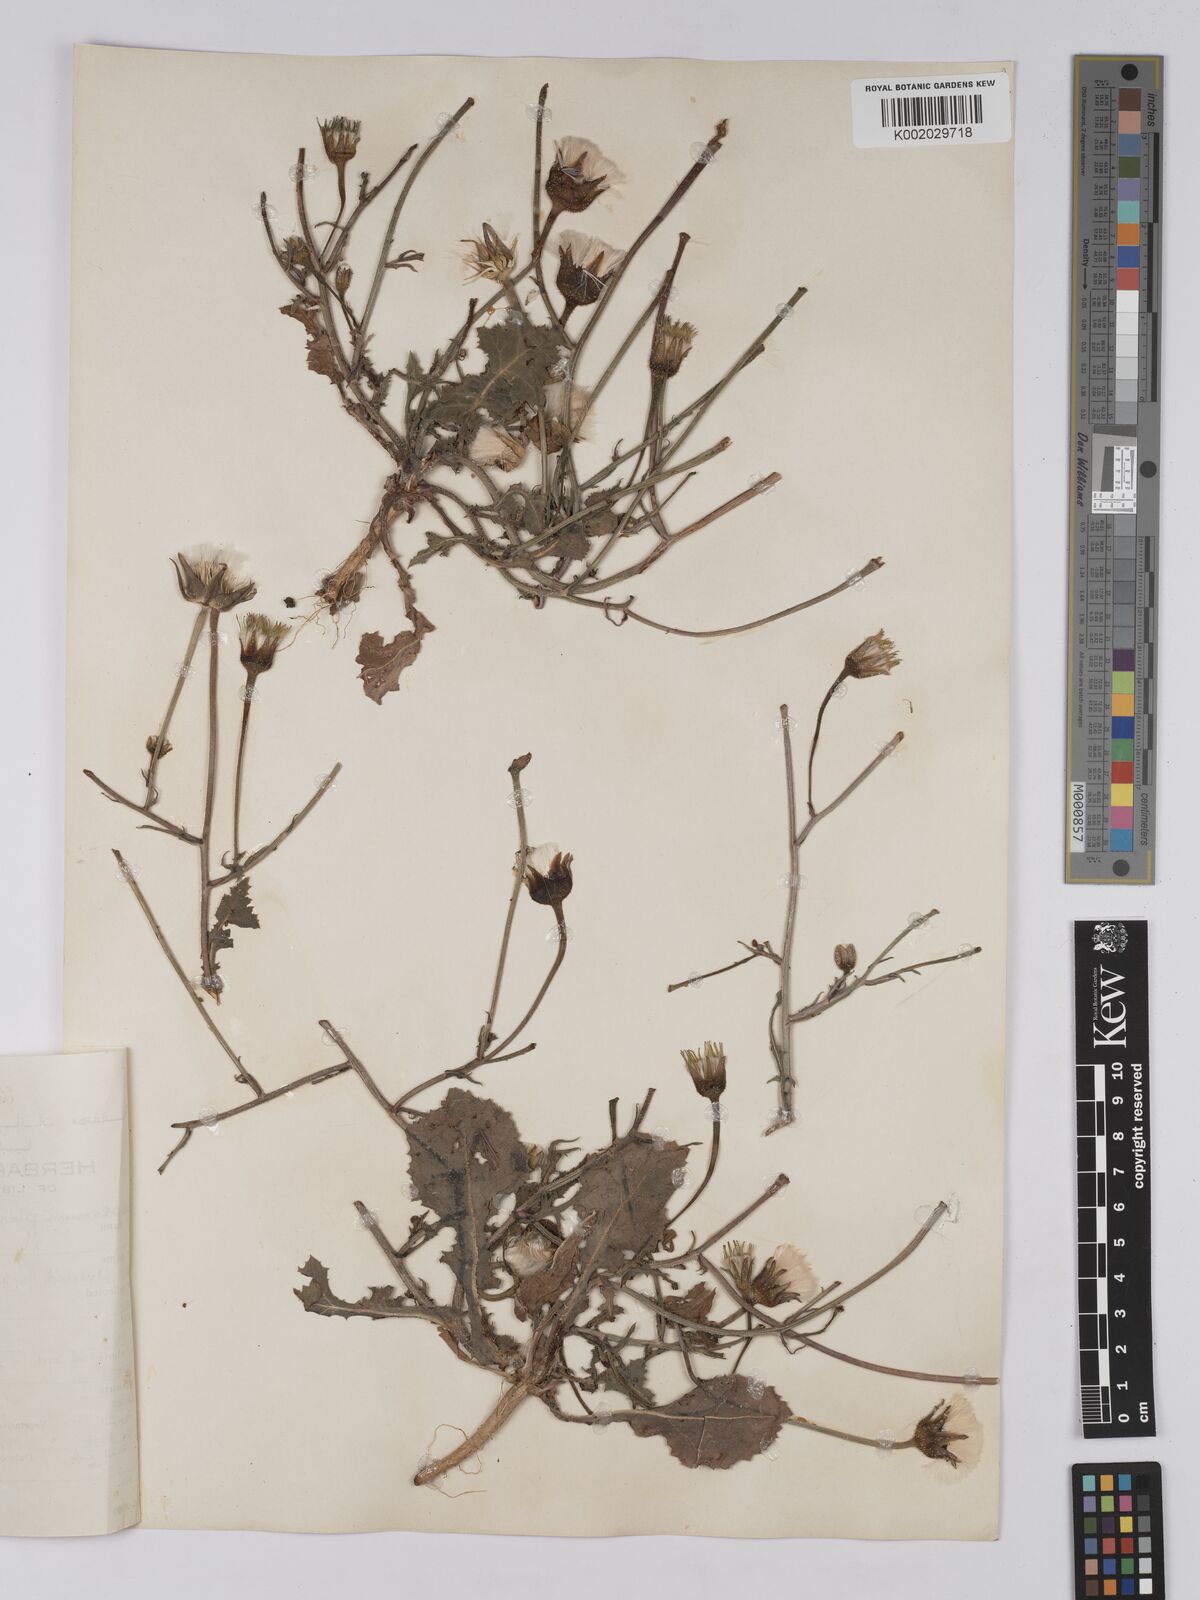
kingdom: Plantae
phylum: Tracheophyta
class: Magnoliopsida
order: Asterales
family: Asteraceae
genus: Urospermum
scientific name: Urospermum picroides
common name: False hawkbit
